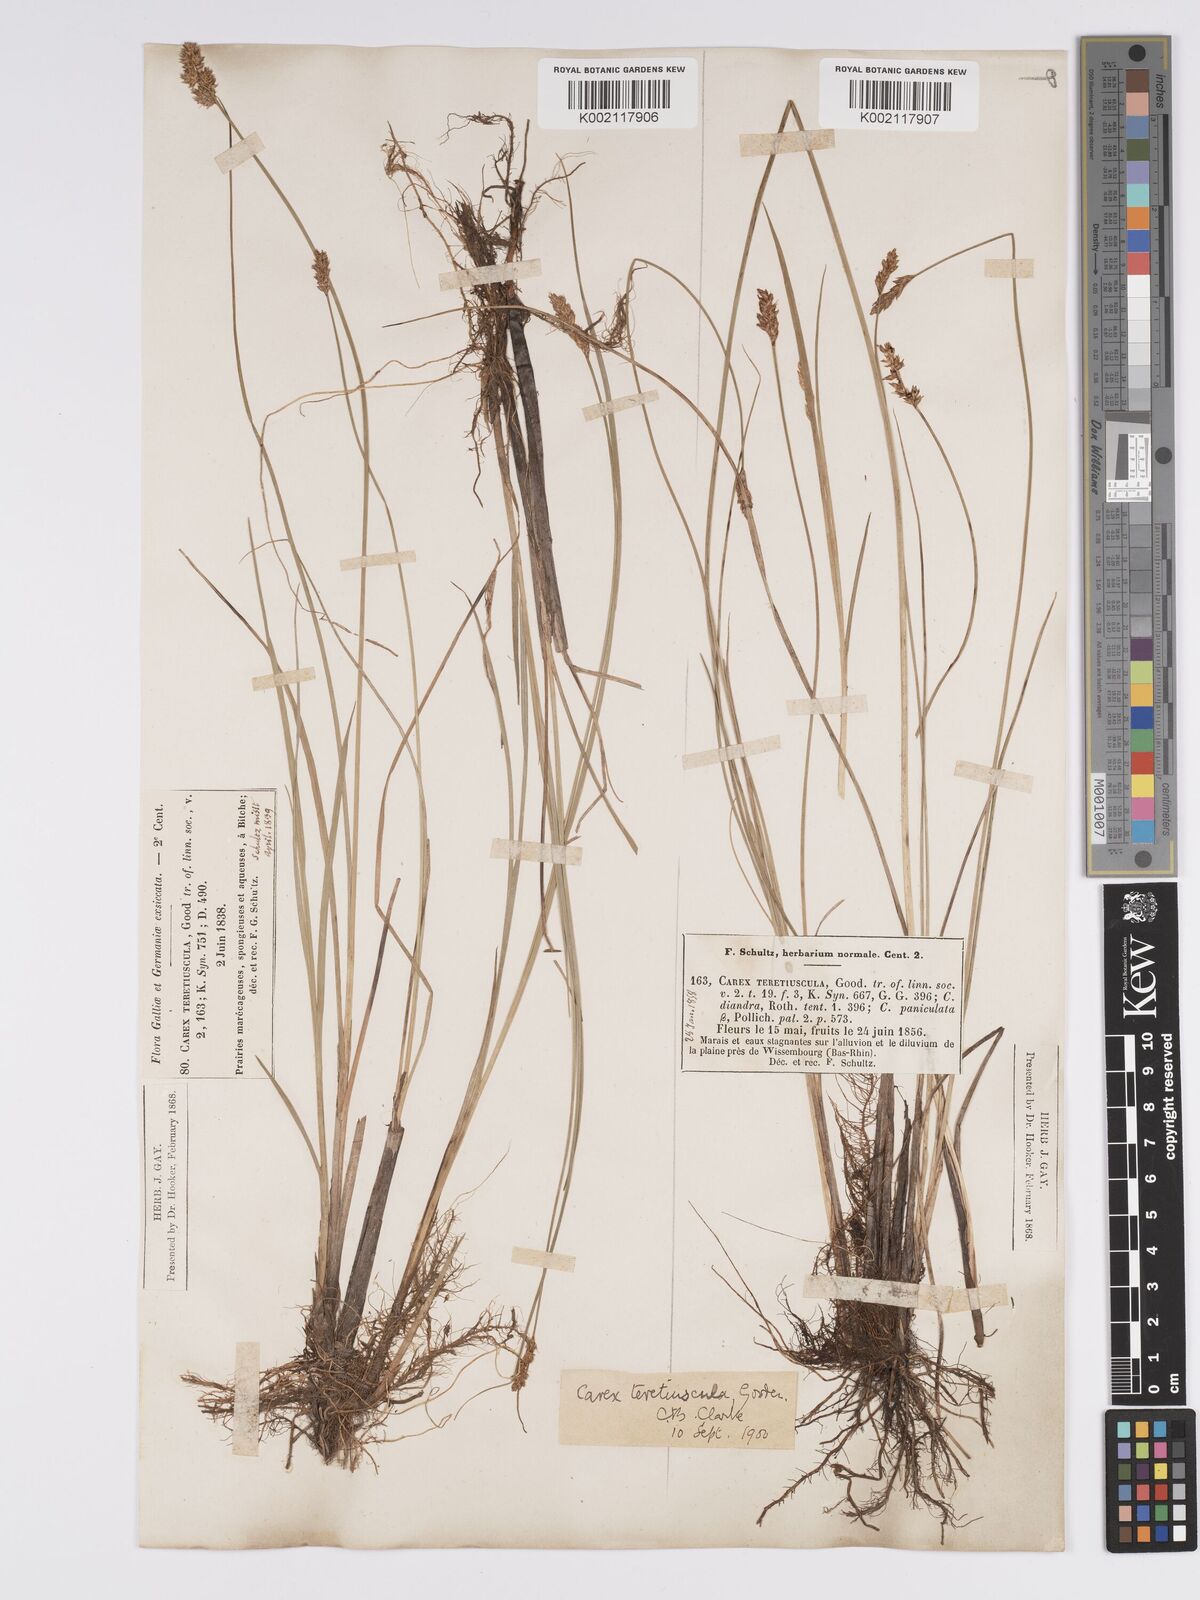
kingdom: Plantae
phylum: Tracheophyta
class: Liliopsida
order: Poales
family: Cyperaceae
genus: Carex
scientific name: Carex diandra
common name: Lesser tussock-sedge
